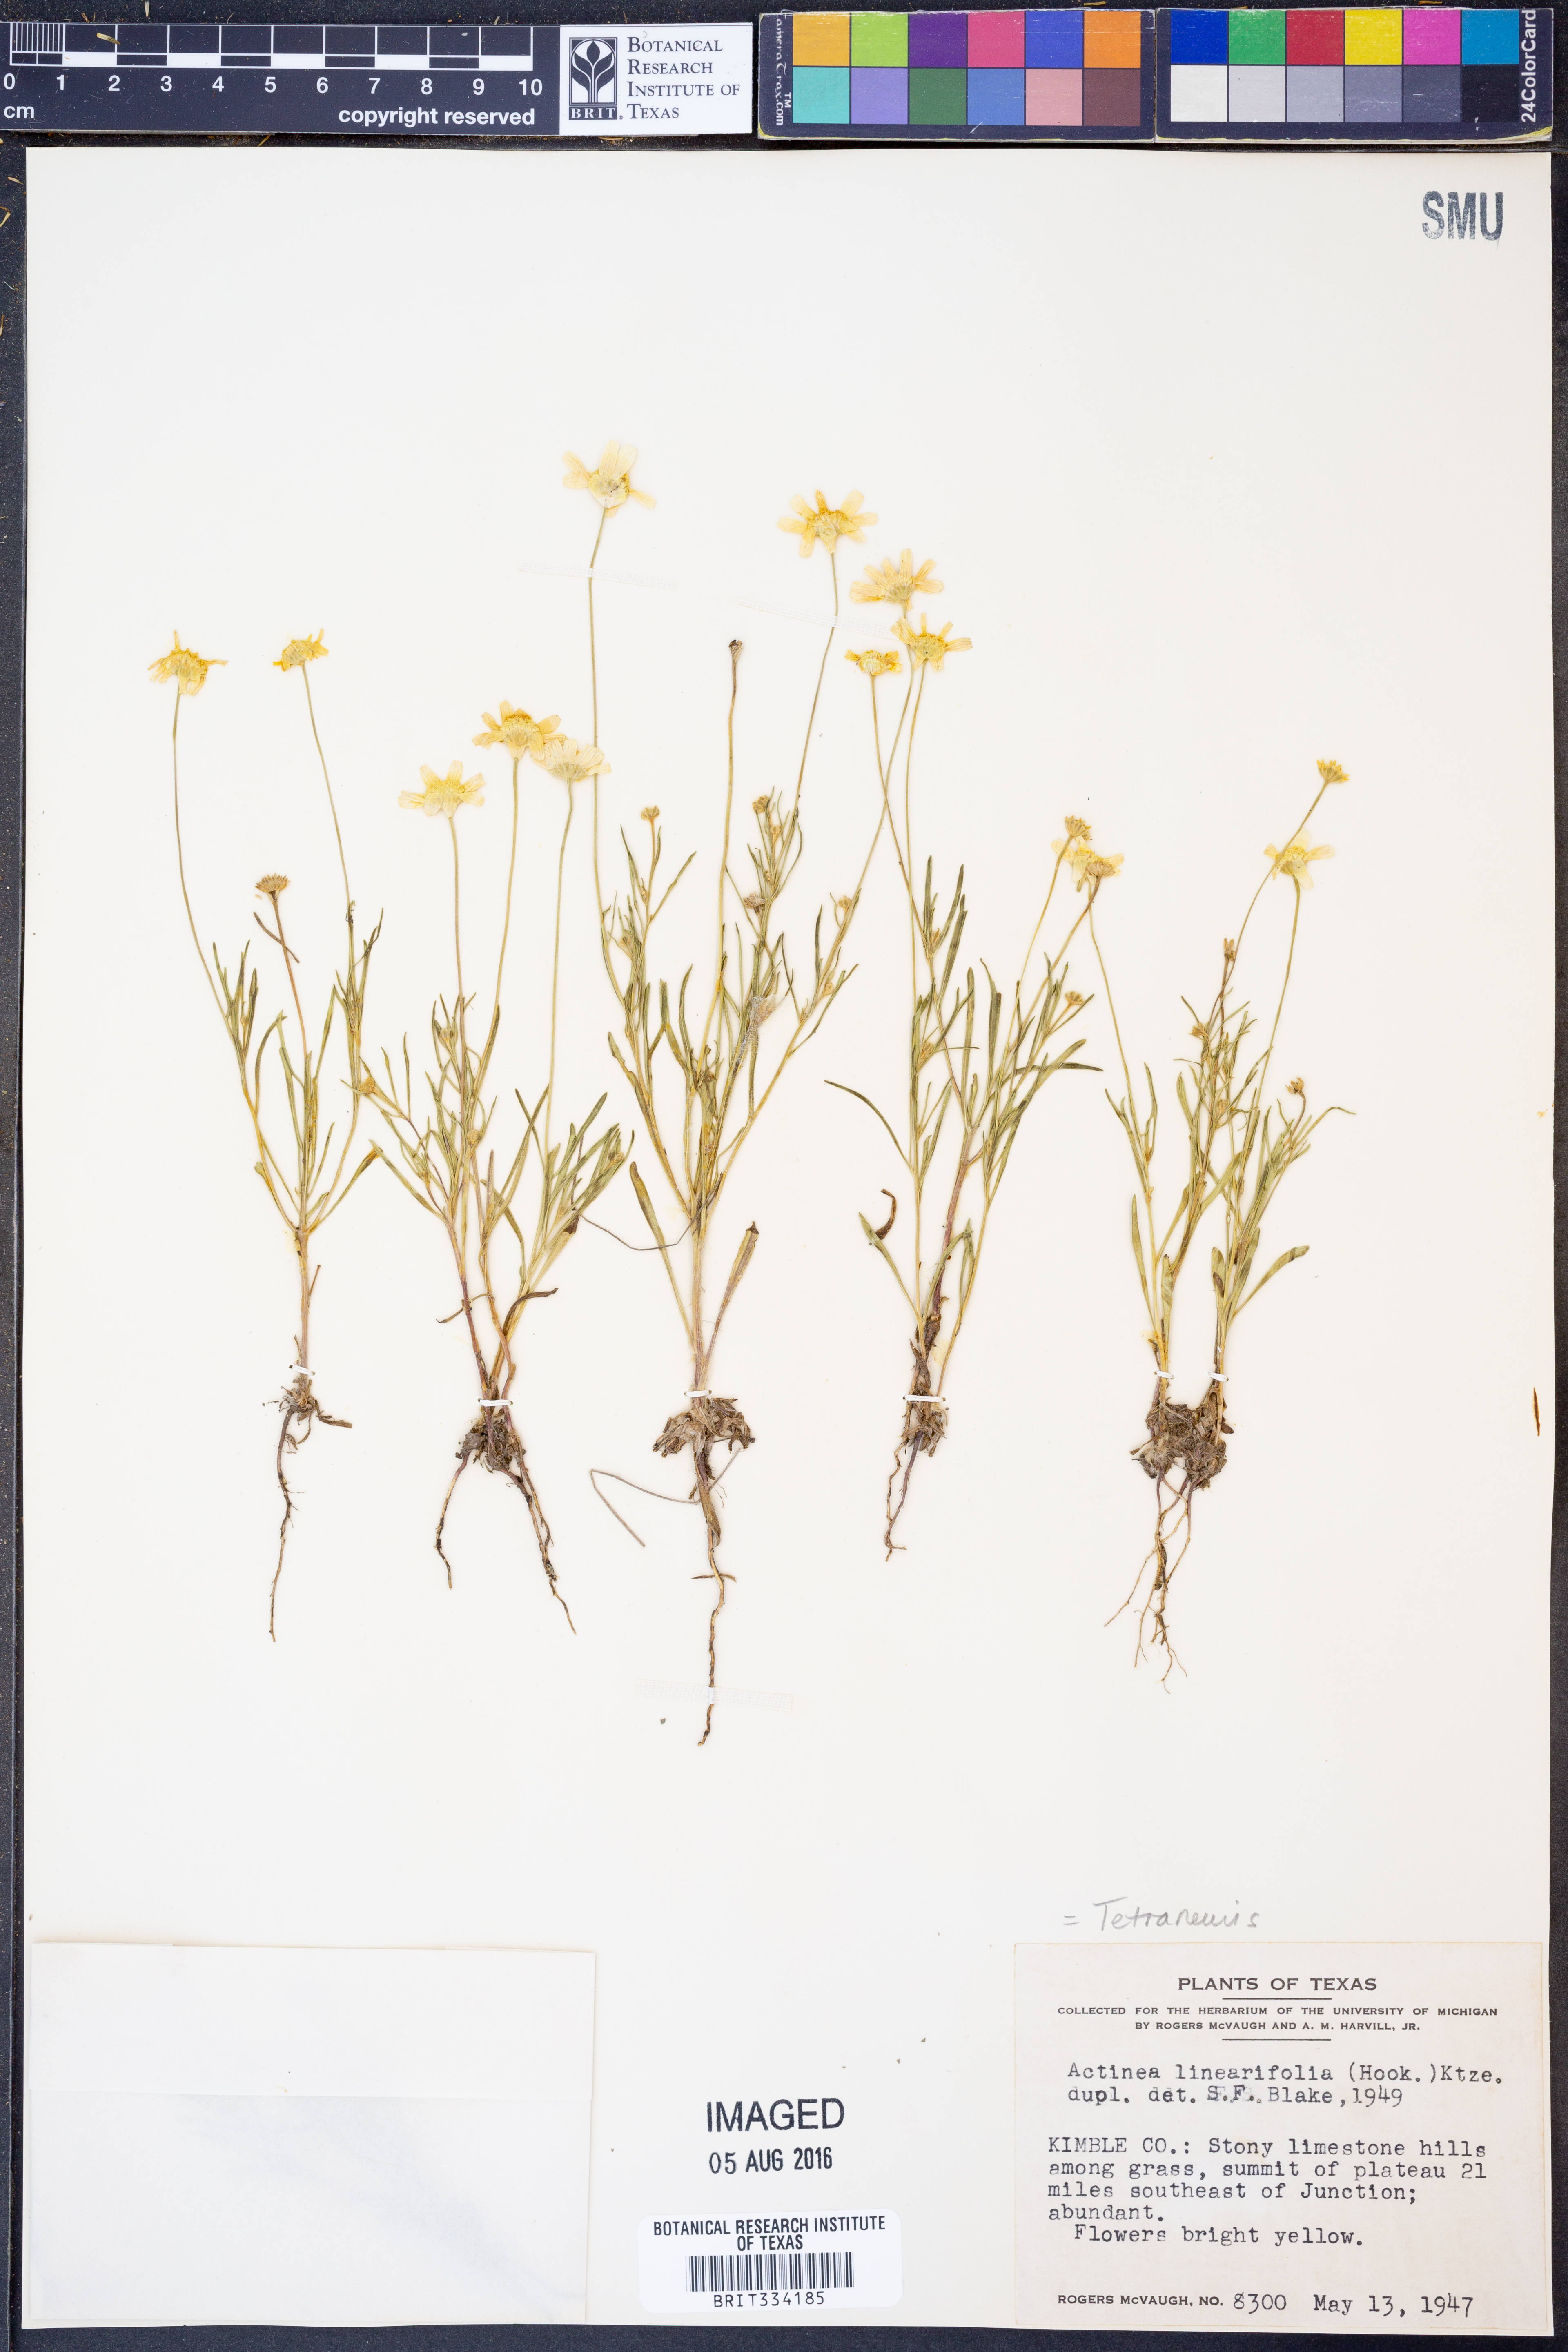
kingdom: Plantae
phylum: Tracheophyta
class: Magnoliopsida
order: Asterales
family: Asteraceae
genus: Tetraneuris
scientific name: Tetraneuris linearifolia
